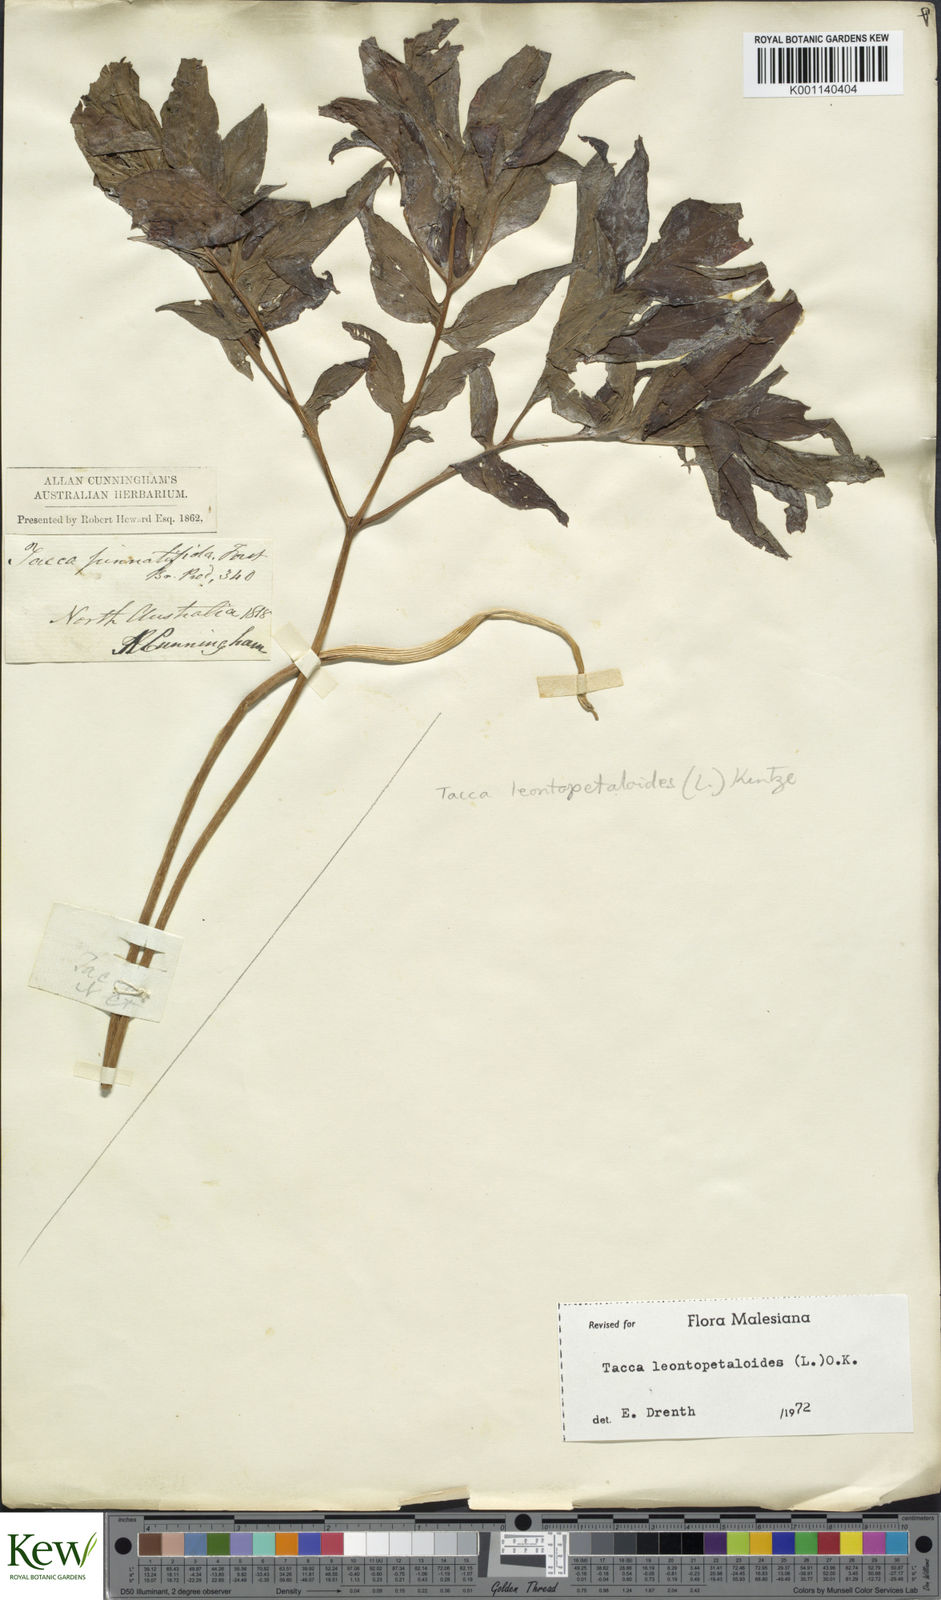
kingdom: Plantae
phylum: Tracheophyta
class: Liliopsida
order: Dioscoreales
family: Dioscoreaceae
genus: Tacca
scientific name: Tacca leontopetaloides
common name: Arrowroot
